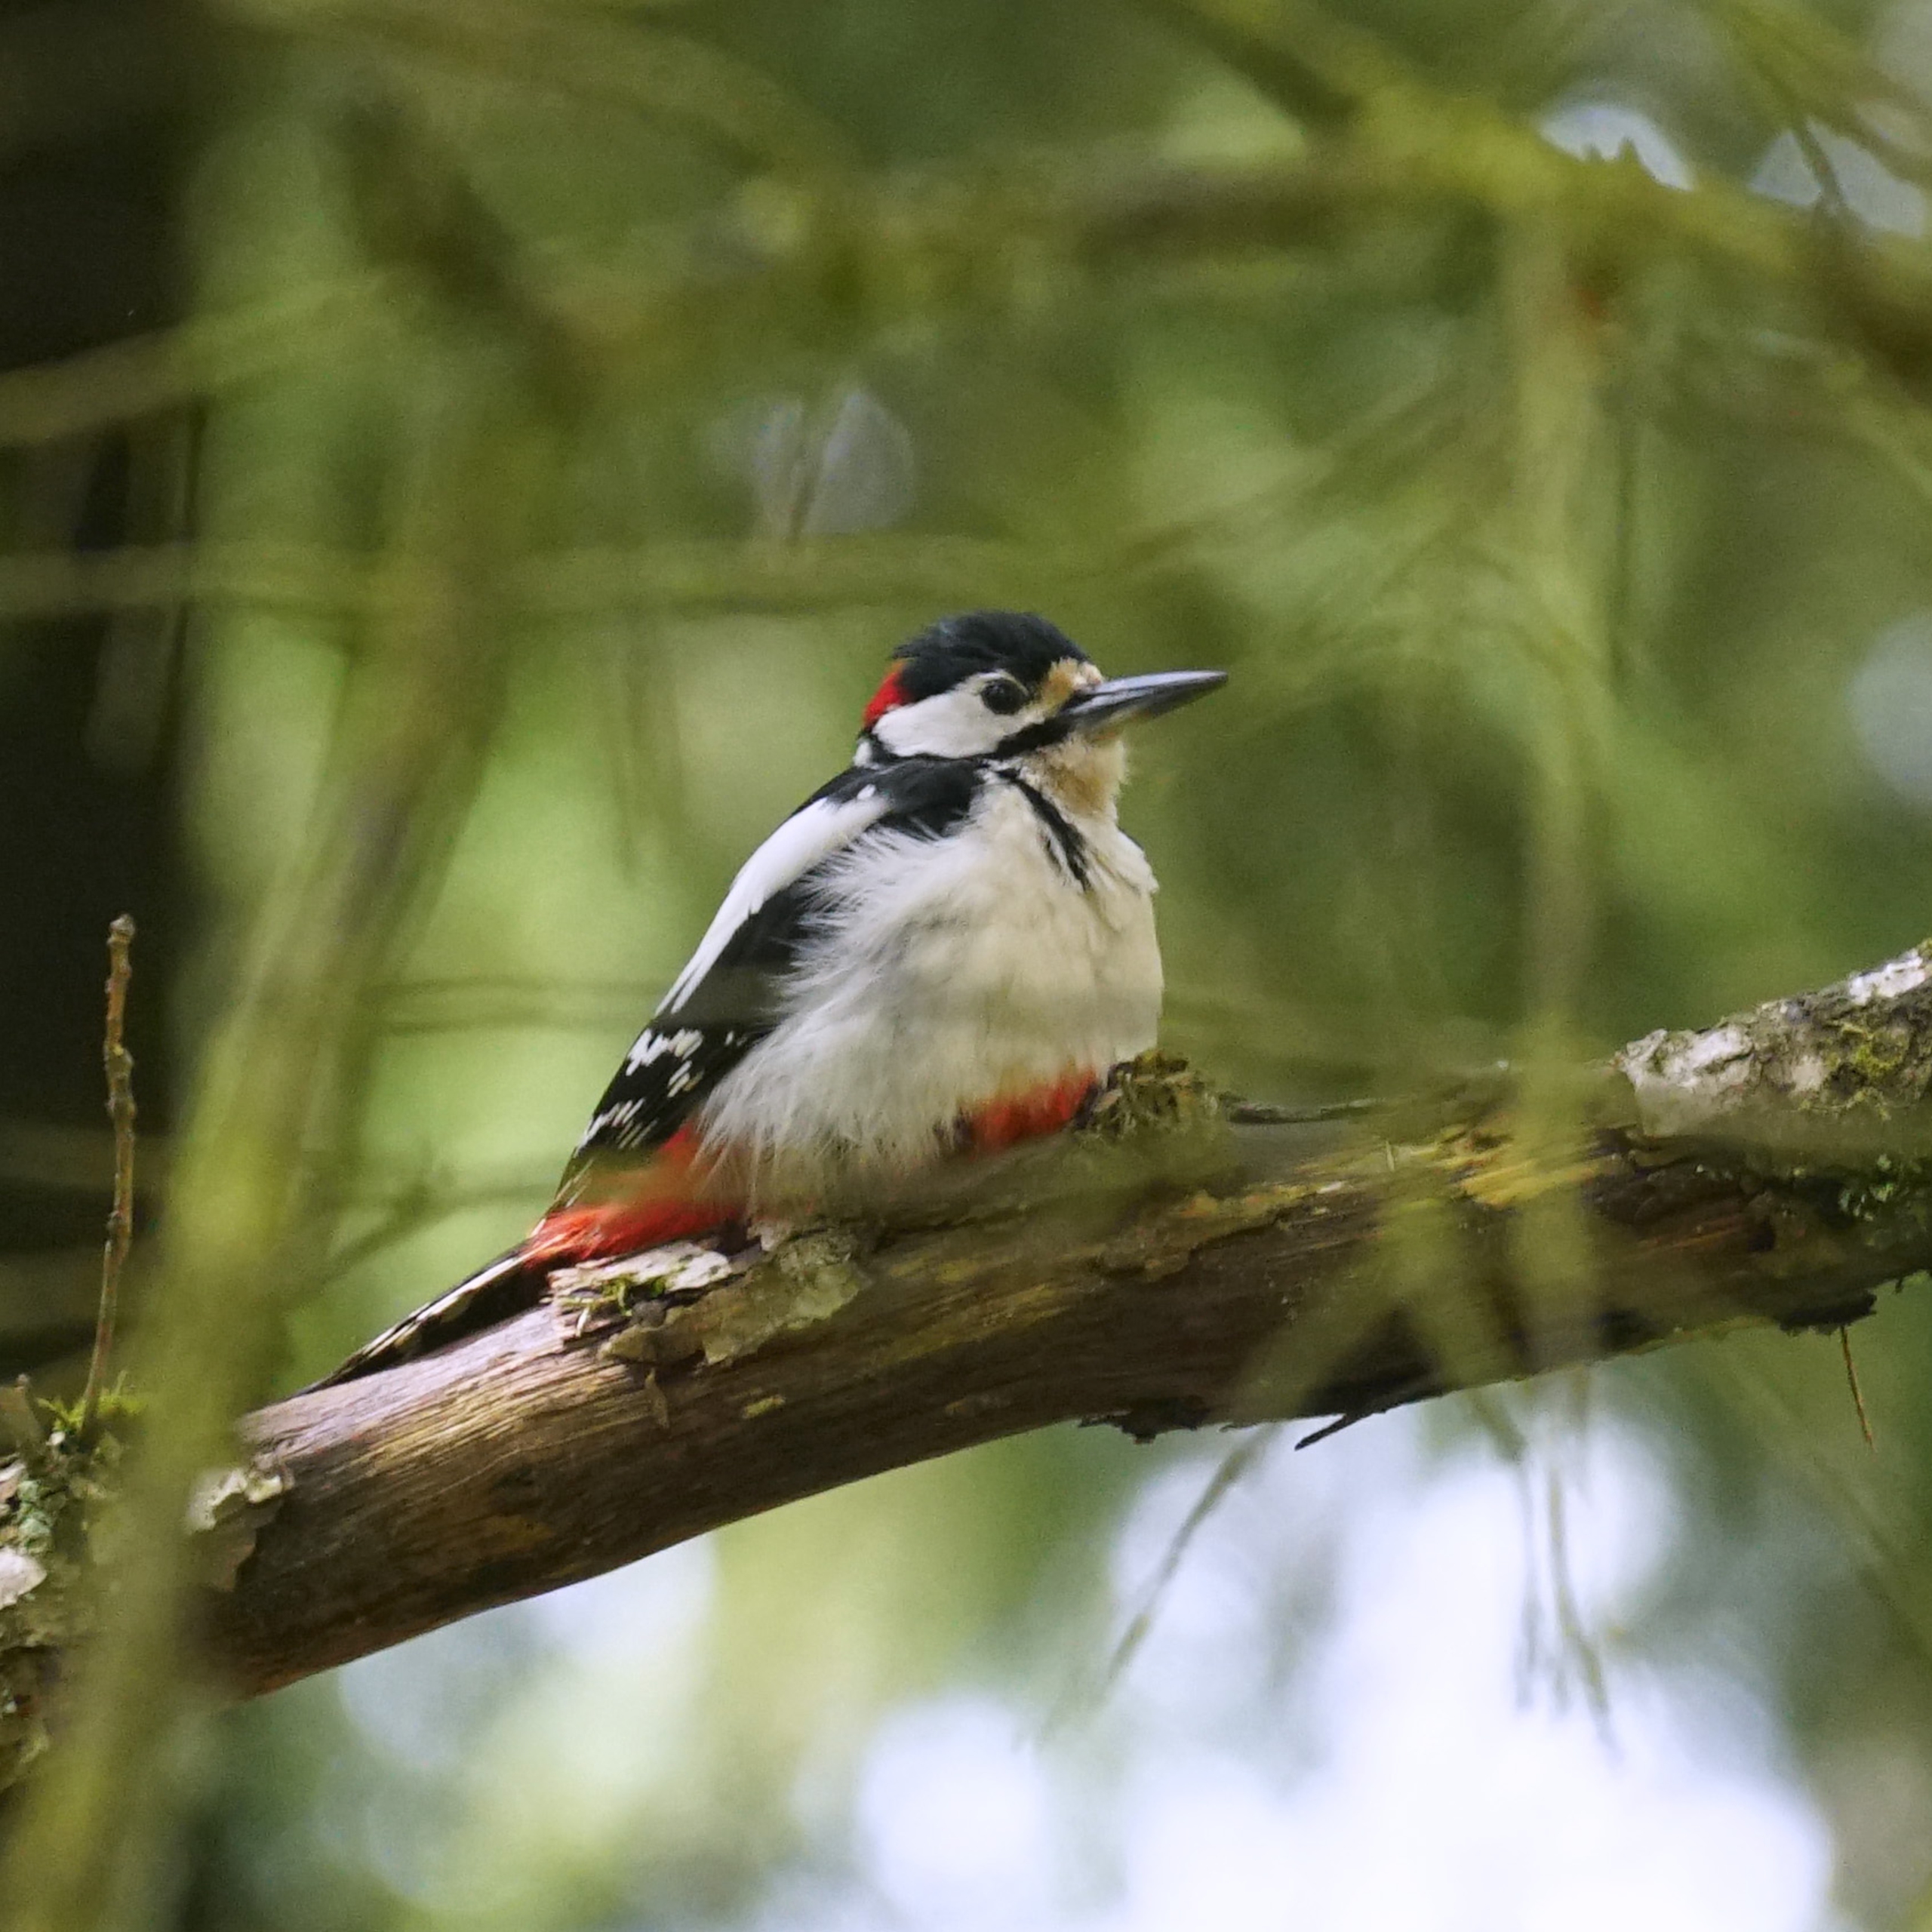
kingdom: Animalia
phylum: Chordata
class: Aves
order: Piciformes
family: Picidae
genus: Dendrocopos
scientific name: Dendrocopos major
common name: Stor flagspætte
